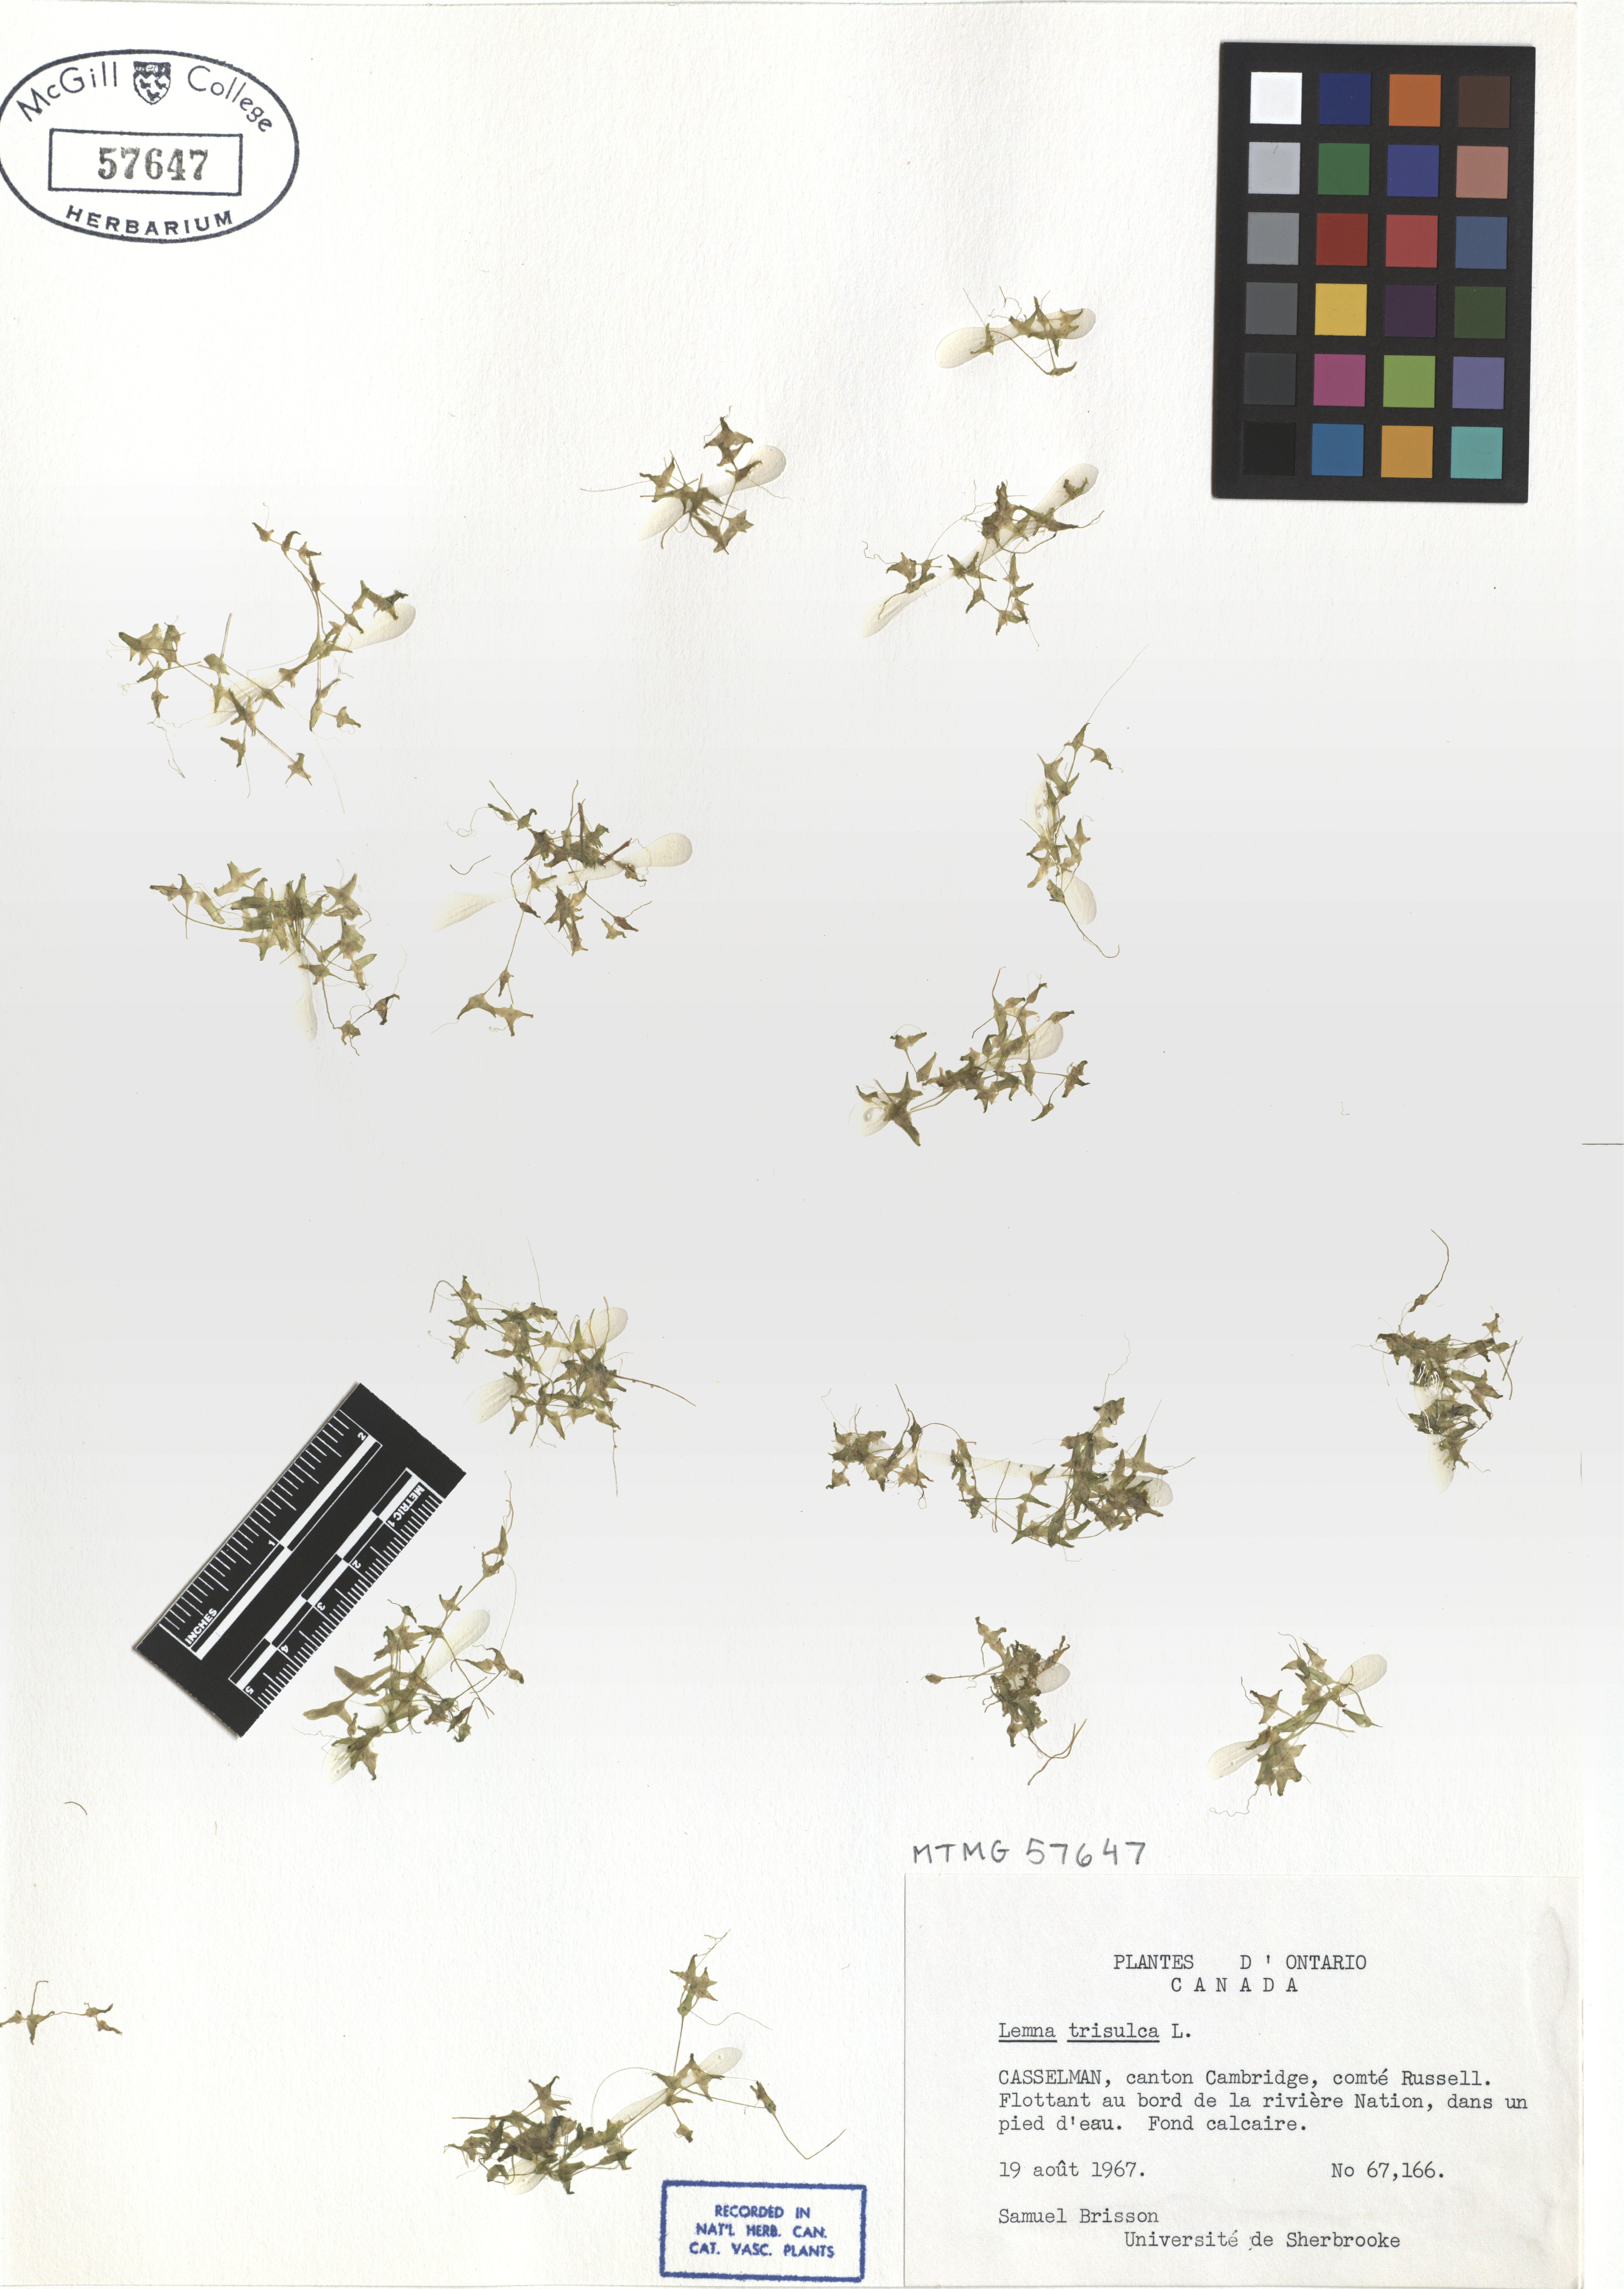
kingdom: Plantae
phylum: Tracheophyta
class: Liliopsida
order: Alismatales
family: Araceae
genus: Lemna
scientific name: Lemna trisulca
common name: Ivy-leaved duckweed
